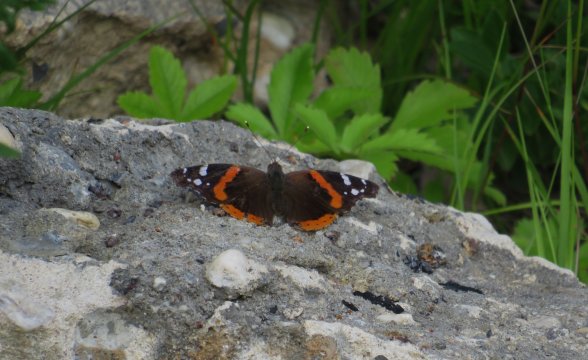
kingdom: Animalia
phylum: Arthropoda
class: Insecta
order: Lepidoptera
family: Nymphalidae
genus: Vanessa
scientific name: Vanessa atalanta
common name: Red Admiral
